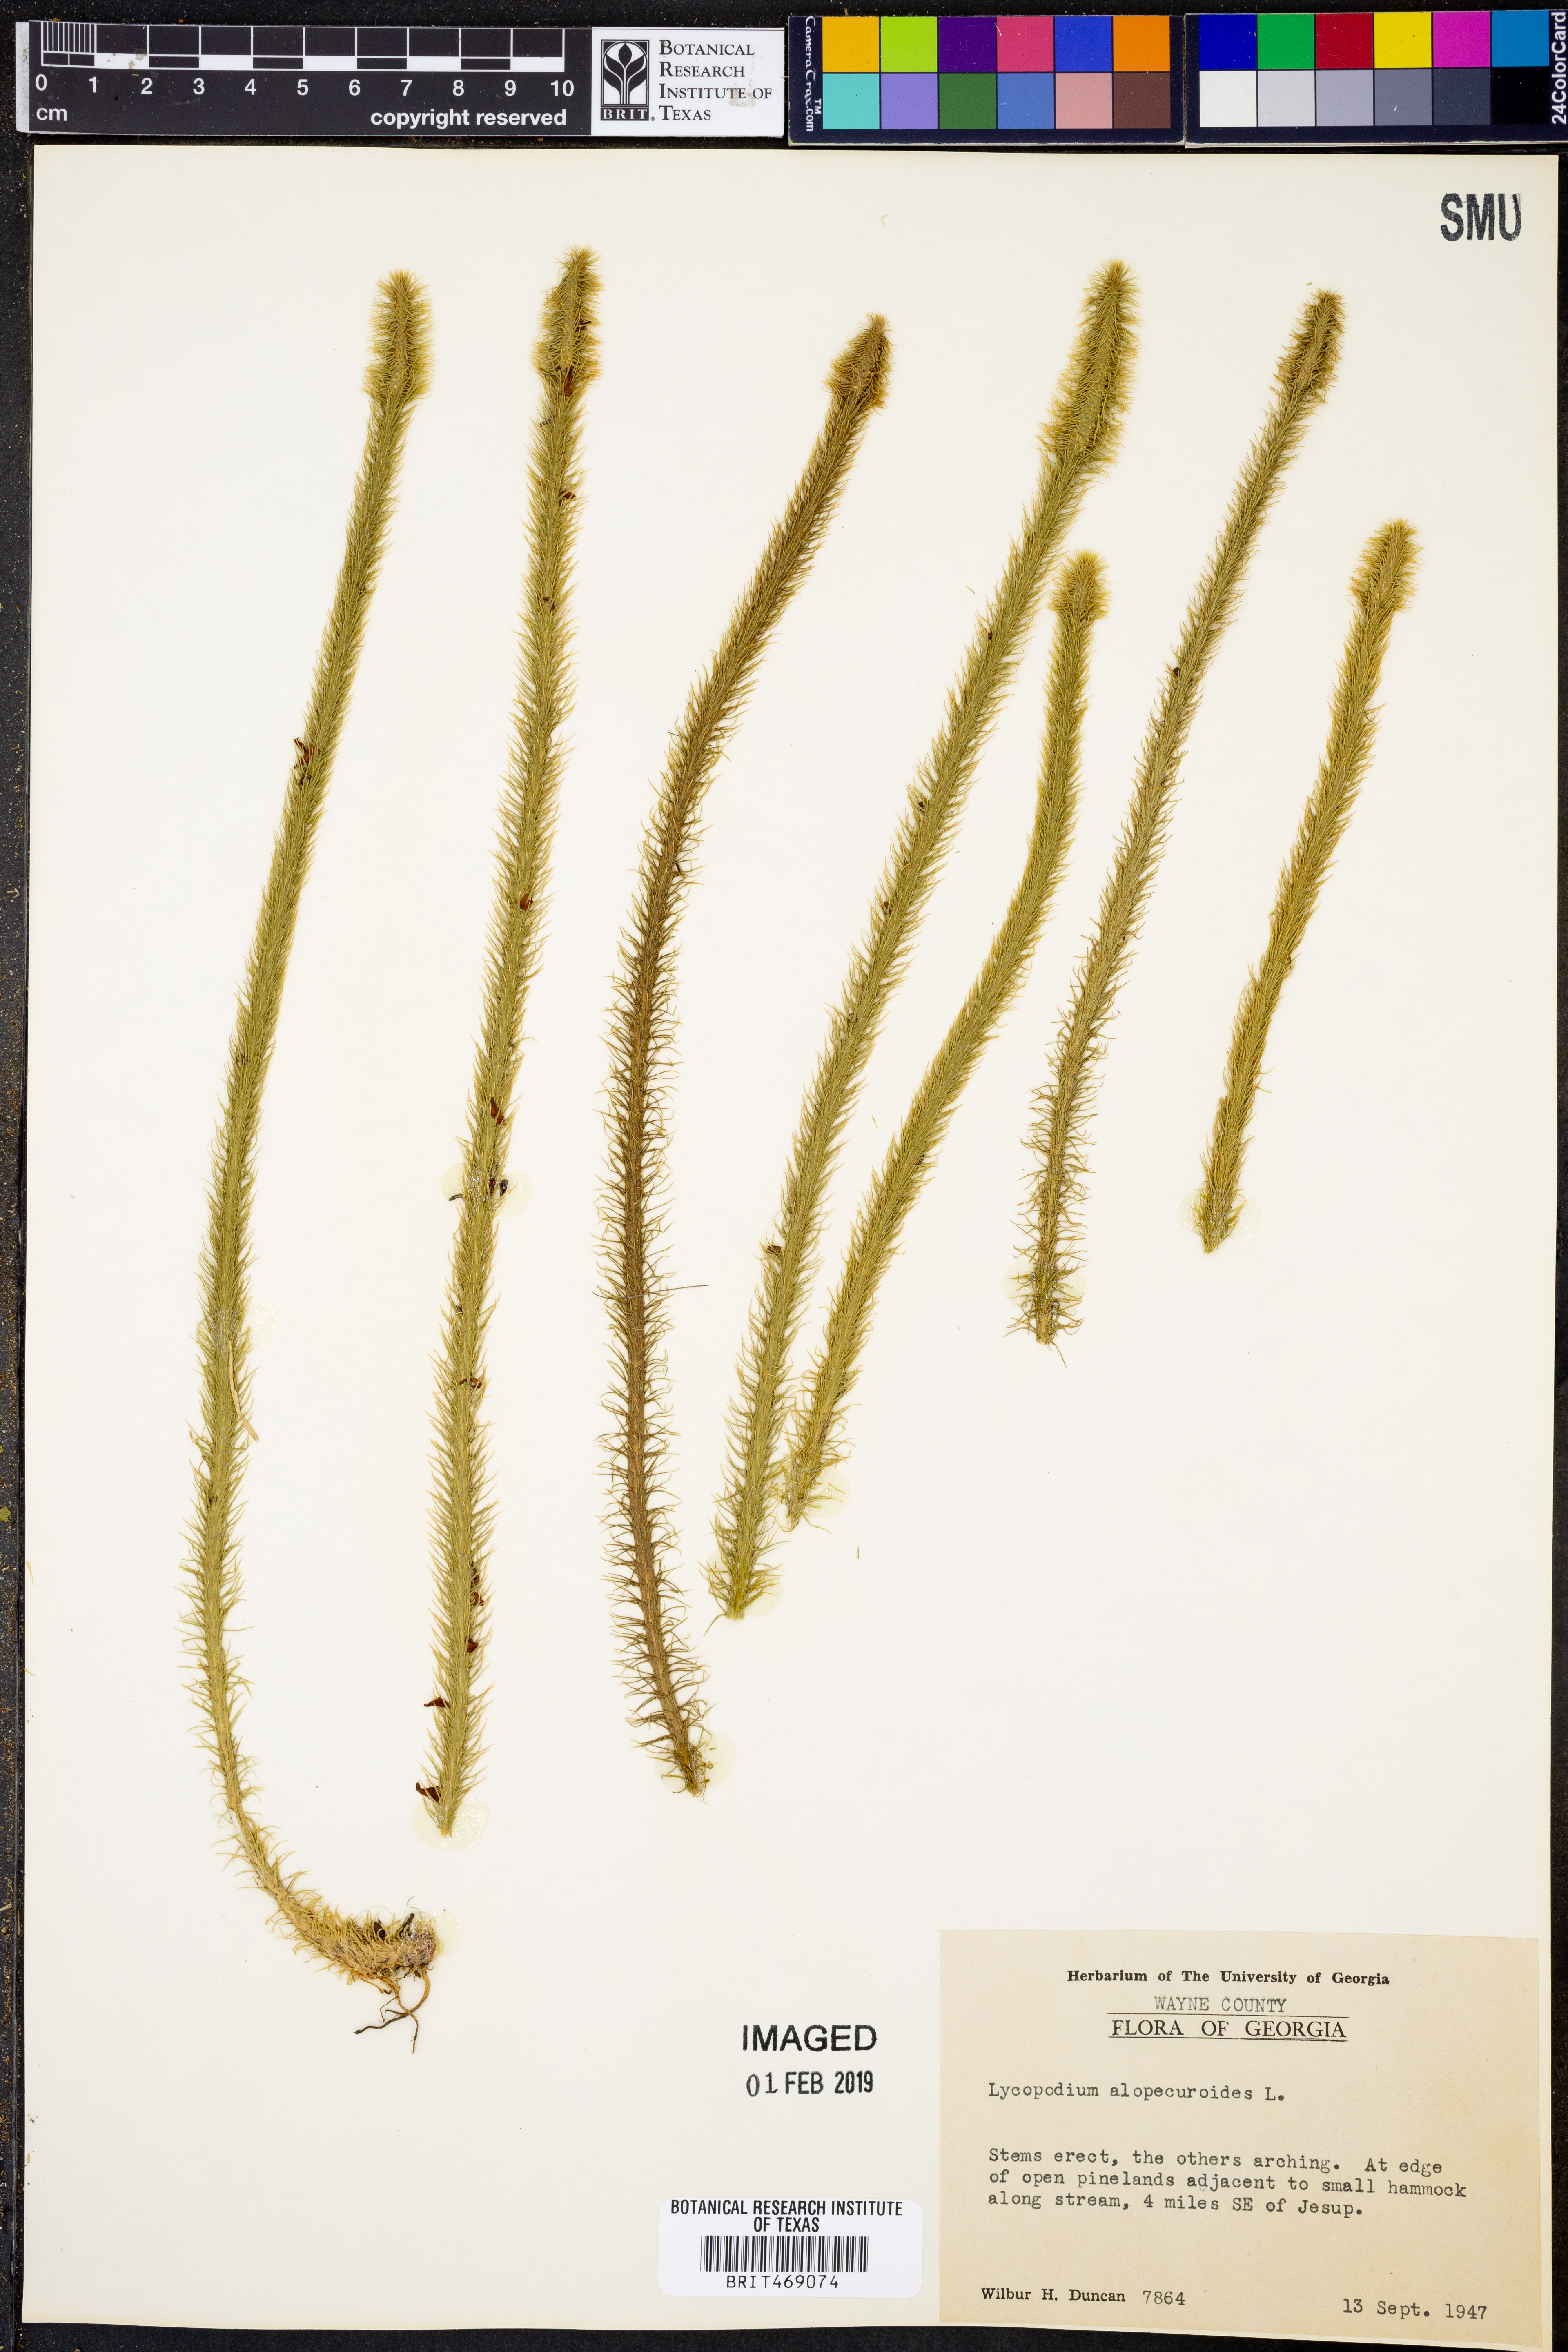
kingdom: Plantae
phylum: Tracheophyta
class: Lycopodiopsida
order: Lycopodiales
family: Lycopodiaceae
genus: Lycopodiella
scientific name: Lycopodiella alopecuroides
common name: Foxtail clubmoss
